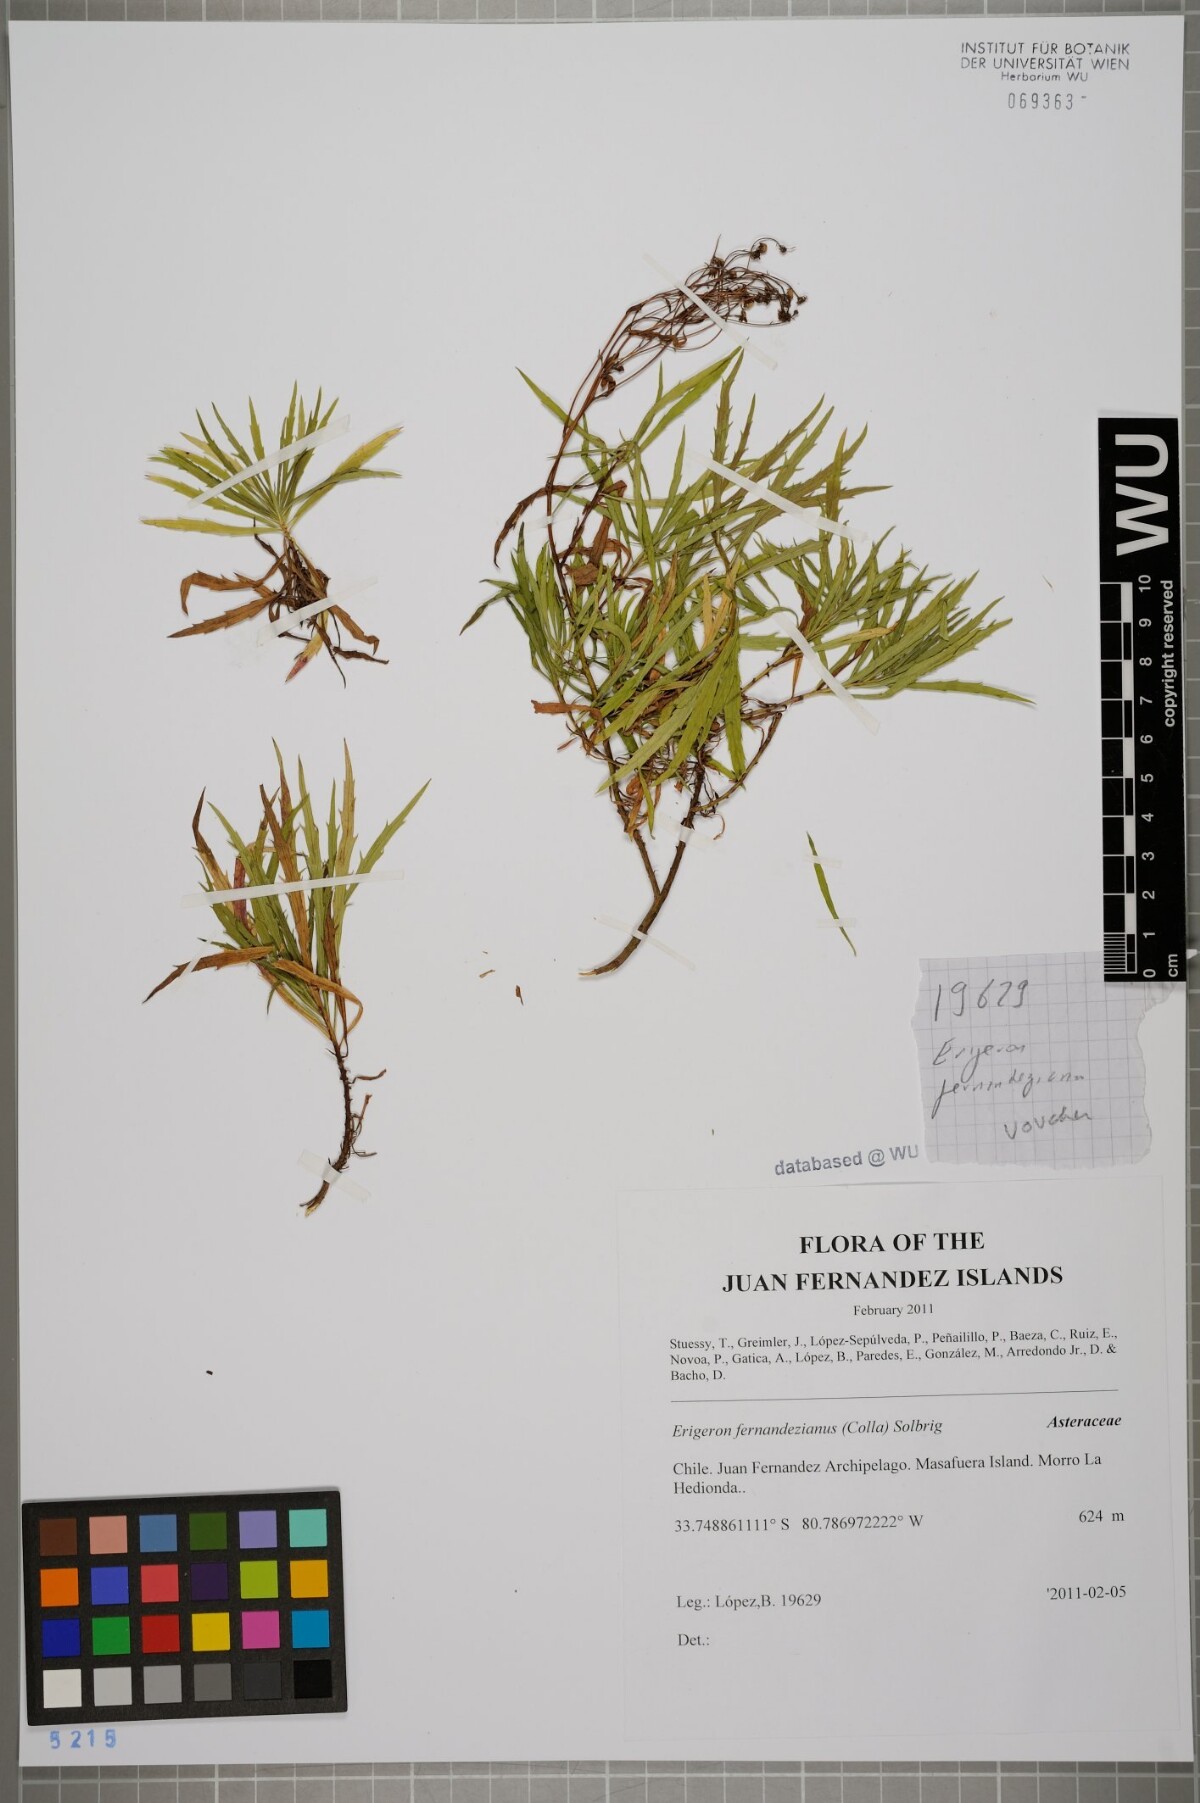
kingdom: Plantae
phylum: Tracheophyta
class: Magnoliopsida
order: Asterales
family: Asteraceae
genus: Erigeron
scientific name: Erigeron fernandezianus
